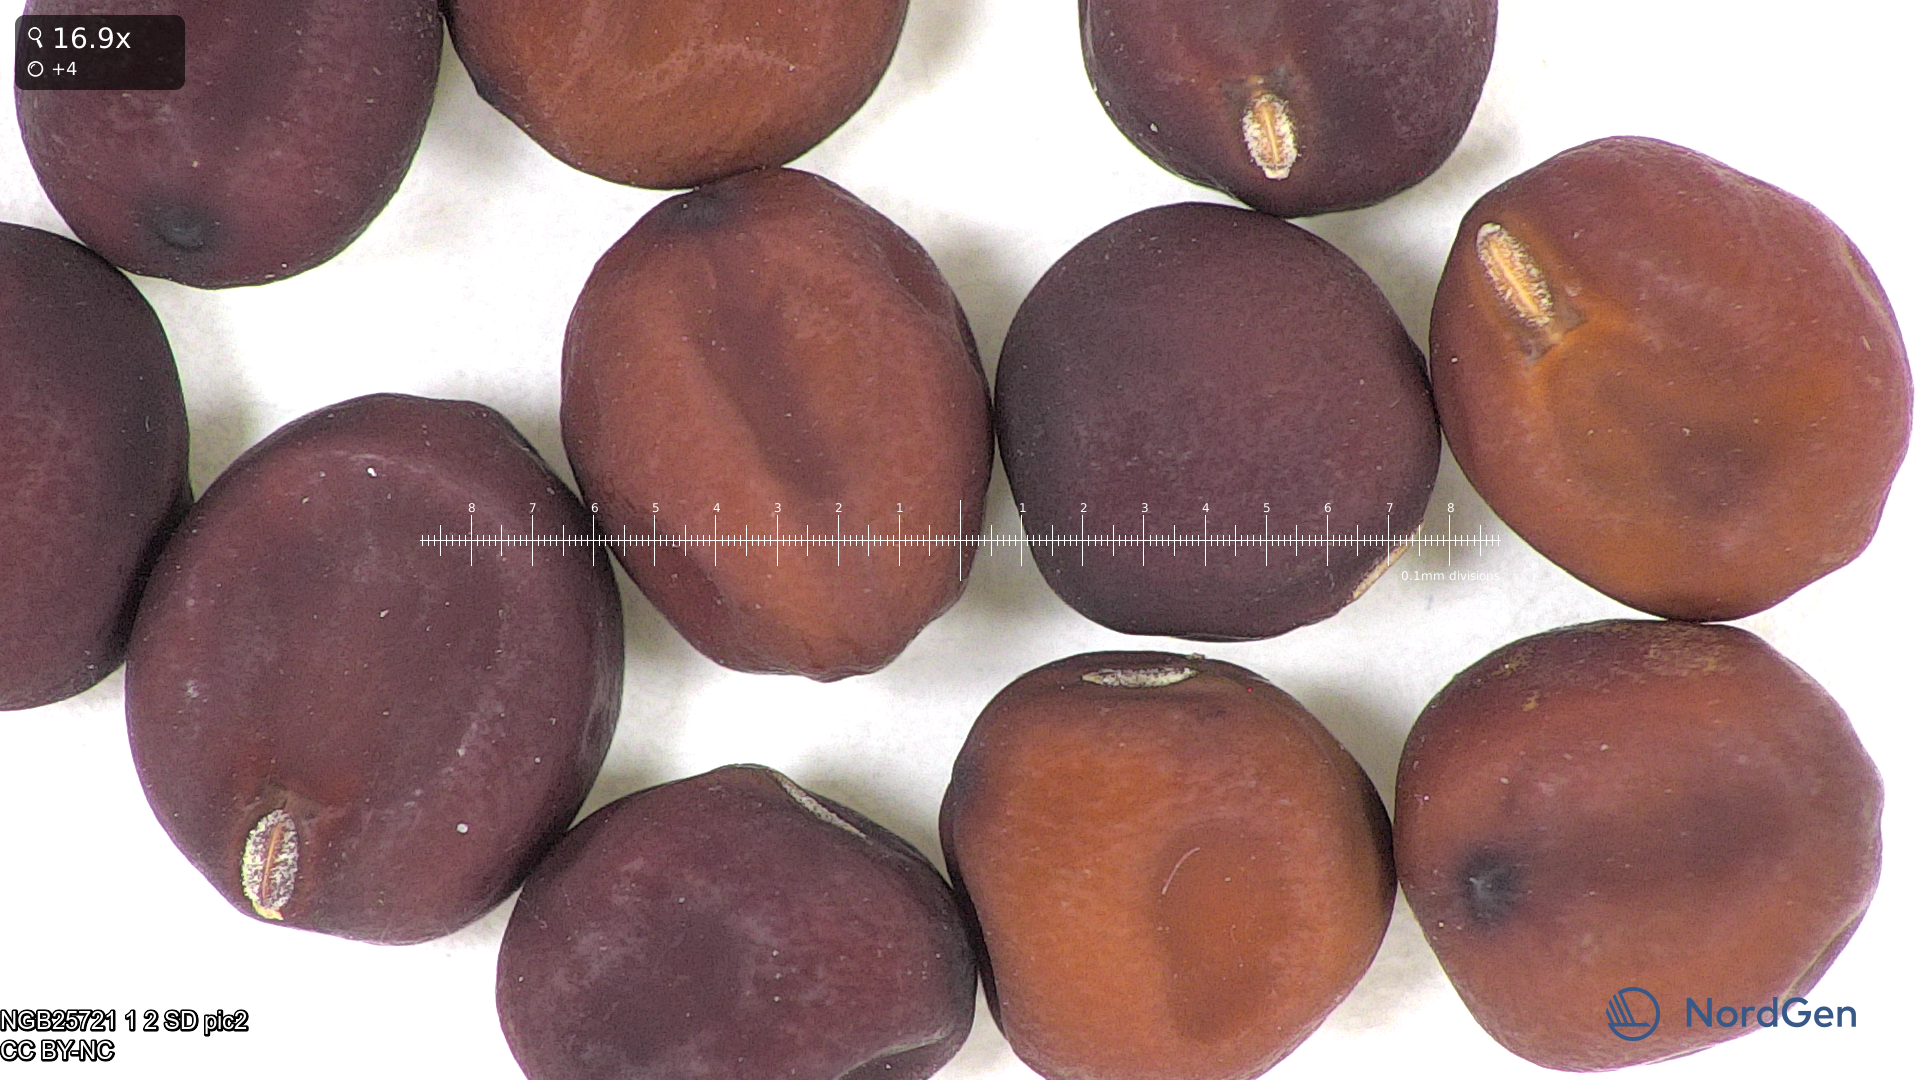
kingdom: Plantae
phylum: Tracheophyta
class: Magnoliopsida
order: Fabales
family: Fabaceae
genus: Lathyrus
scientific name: Lathyrus oleraceus
